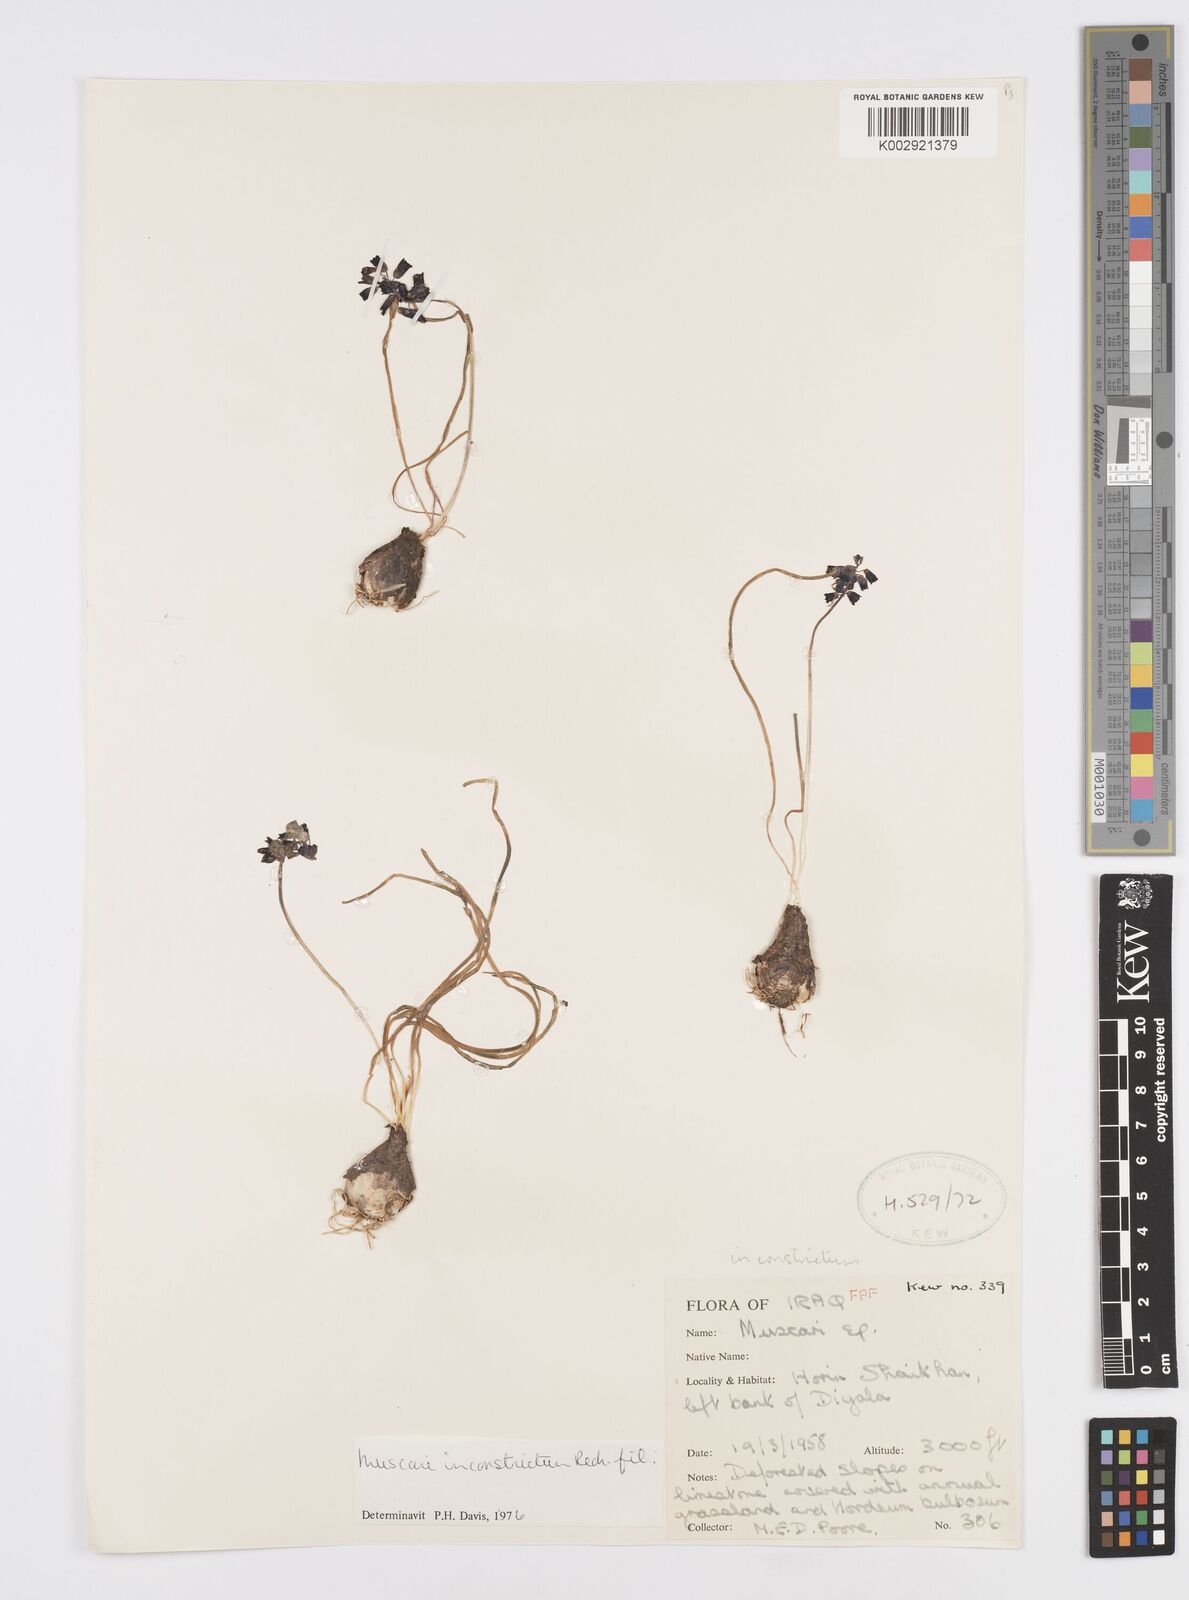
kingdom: Plantae
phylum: Tracheophyta
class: Liliopsida
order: Asparagales
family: Asparagaceae
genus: Muscari
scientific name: Muscari inconstrictum
